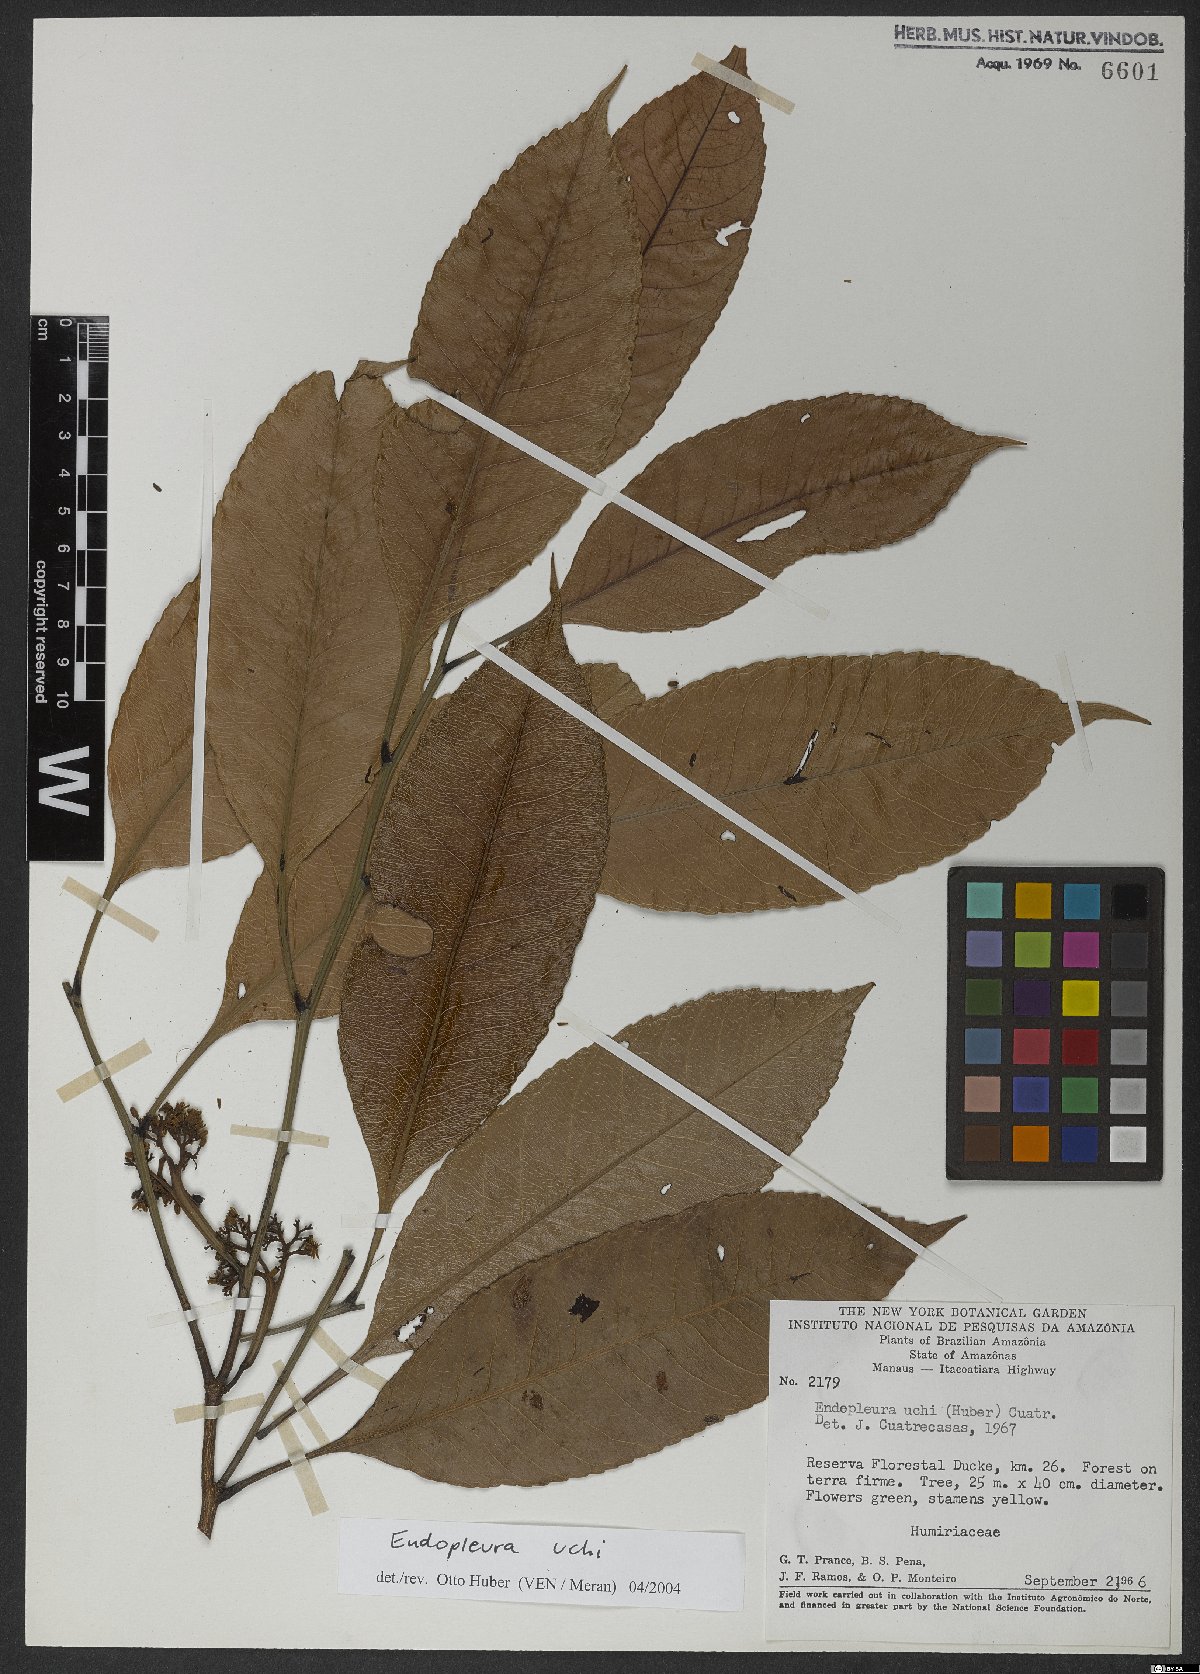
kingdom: Plantae
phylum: Tracheophyta
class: Magnoliopsida
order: Malpighiales
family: Humiriaceae
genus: Endopleura
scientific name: Endopleura uchi
